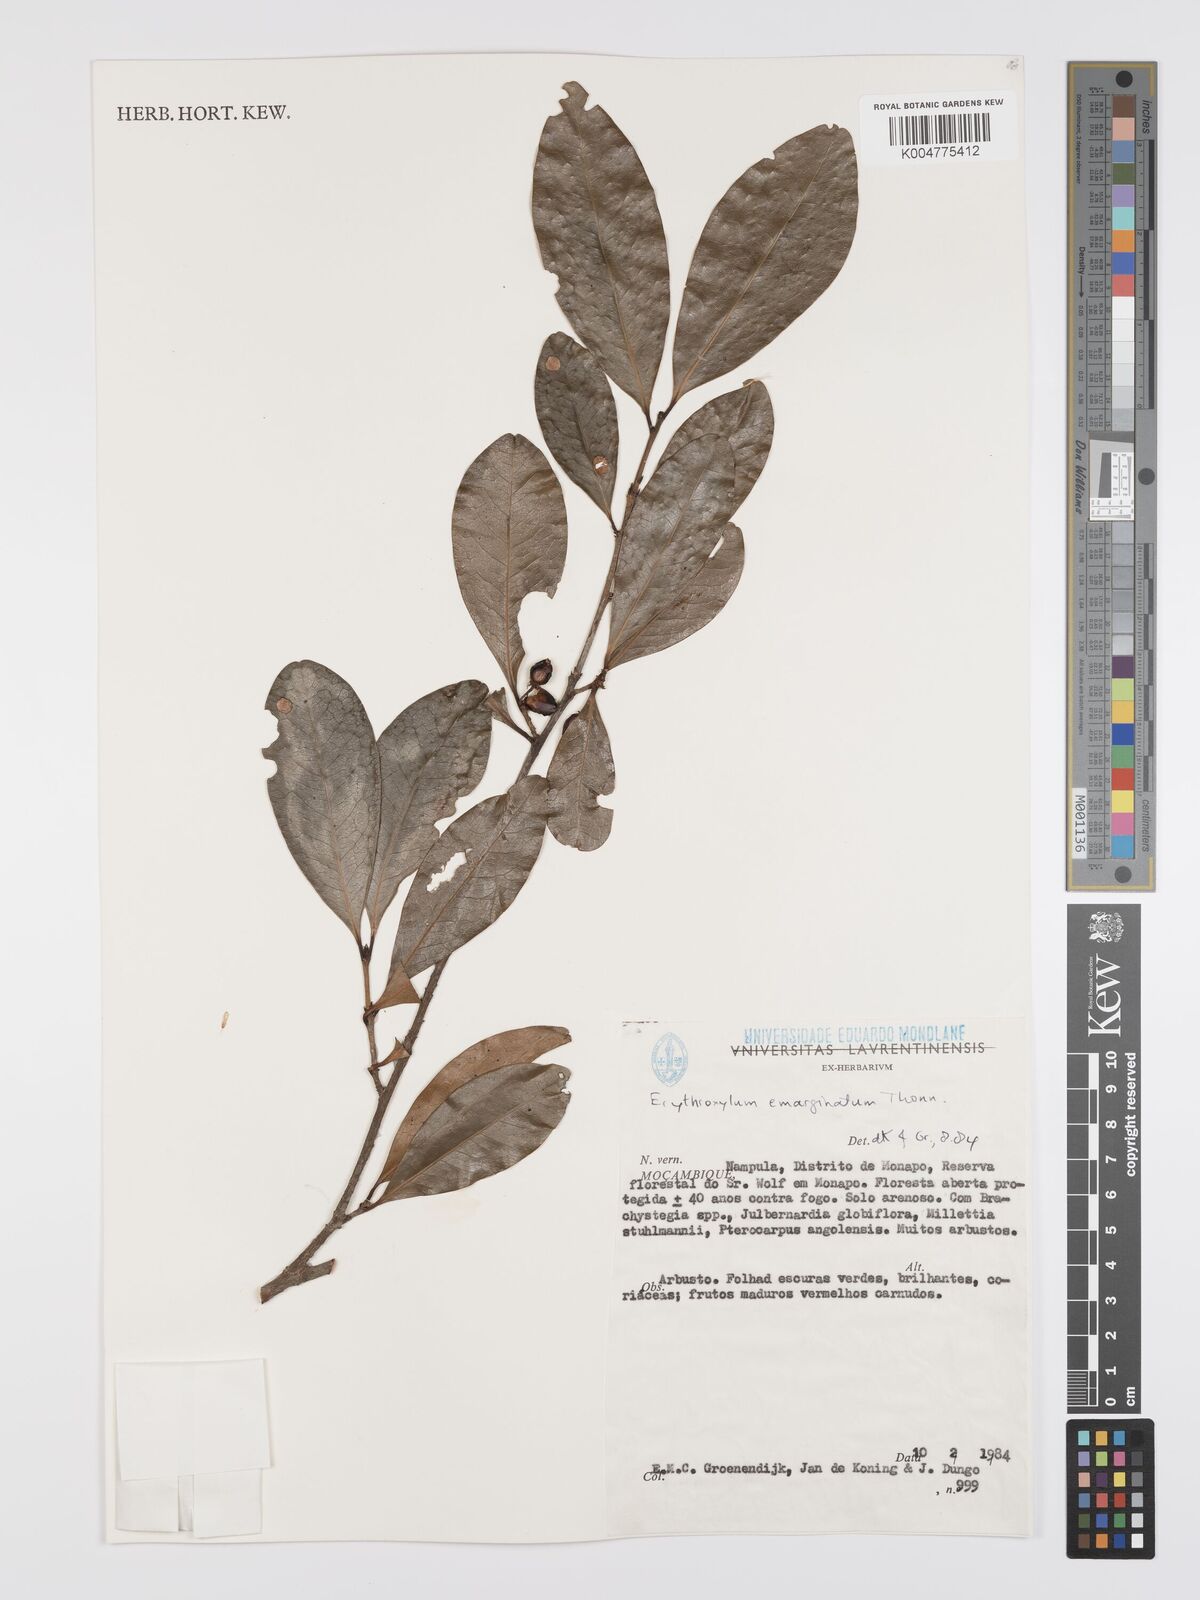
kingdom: Plantae
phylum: Tracheophyta
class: Magnoliopsida
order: Malpighiales
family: Erythroxylaceae
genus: Erythroxylum
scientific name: Erythroxylum emarginatum
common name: African coca-tree
